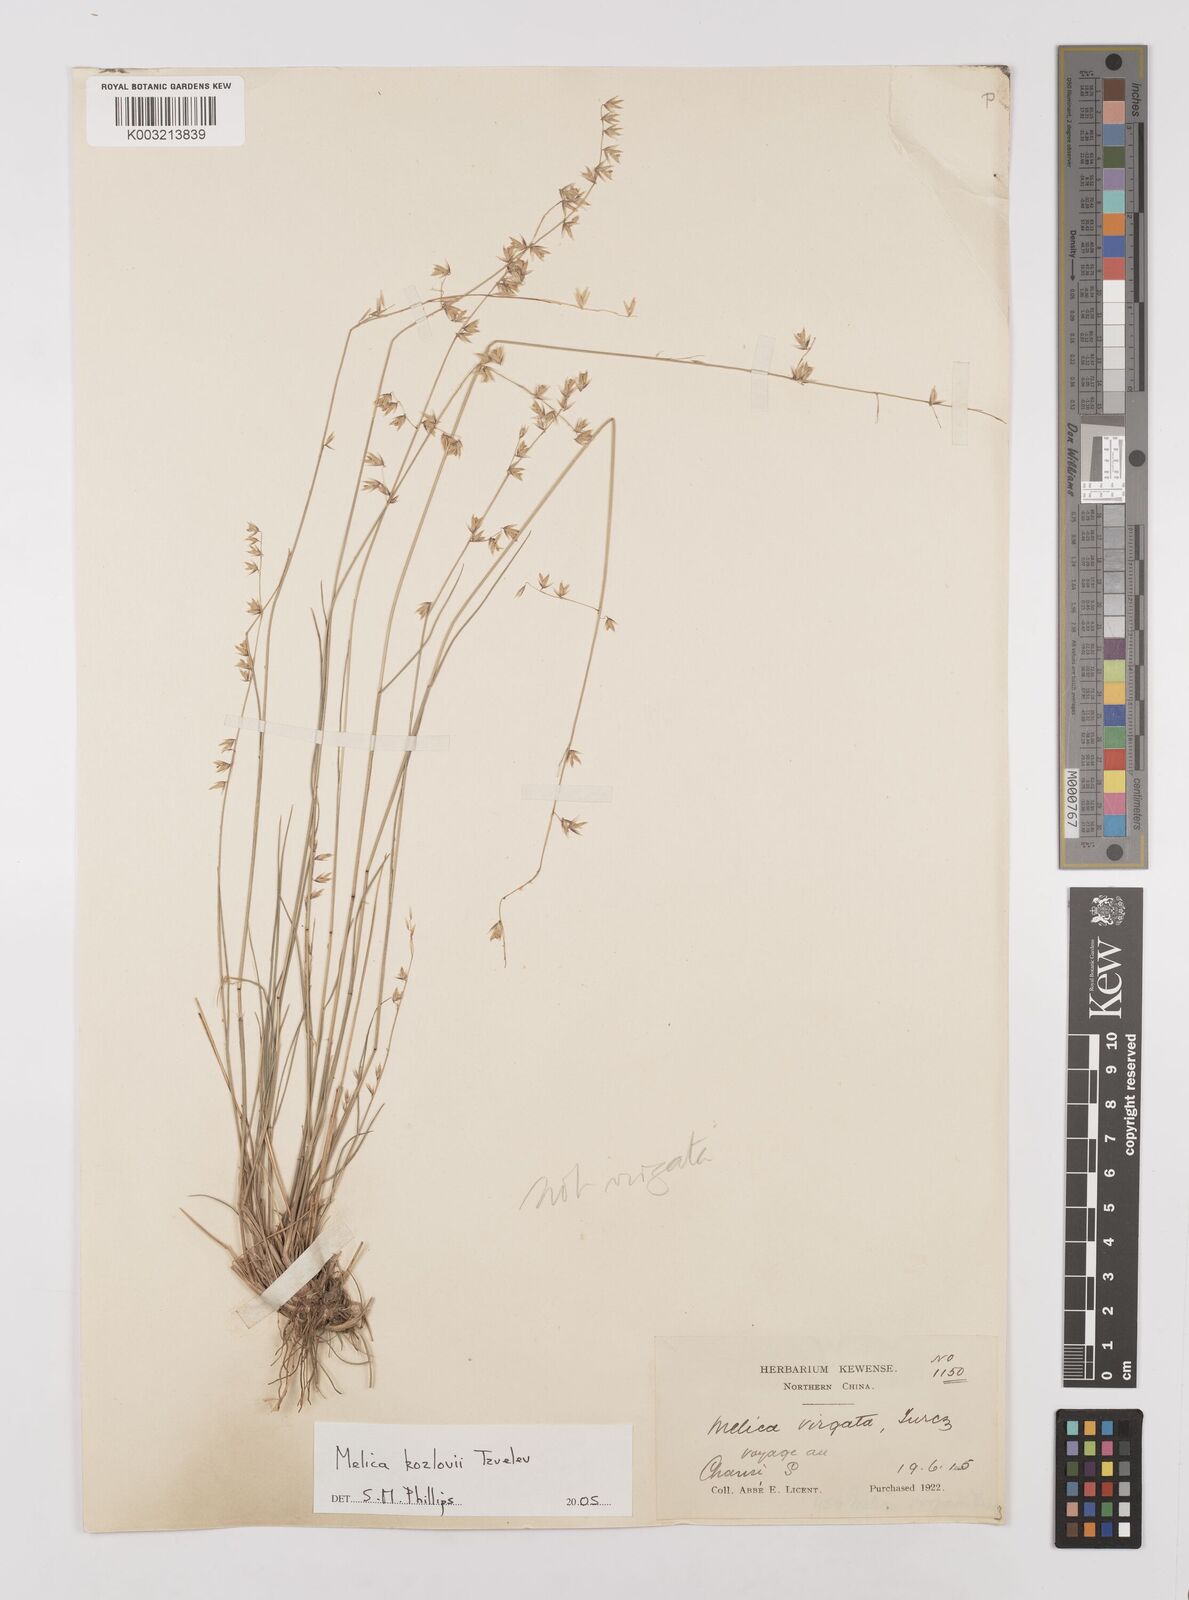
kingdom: Plantae
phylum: Tracheophyta
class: Liliopsida
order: Poales
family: Poaceae
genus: Melica
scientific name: Melica kozlovii
